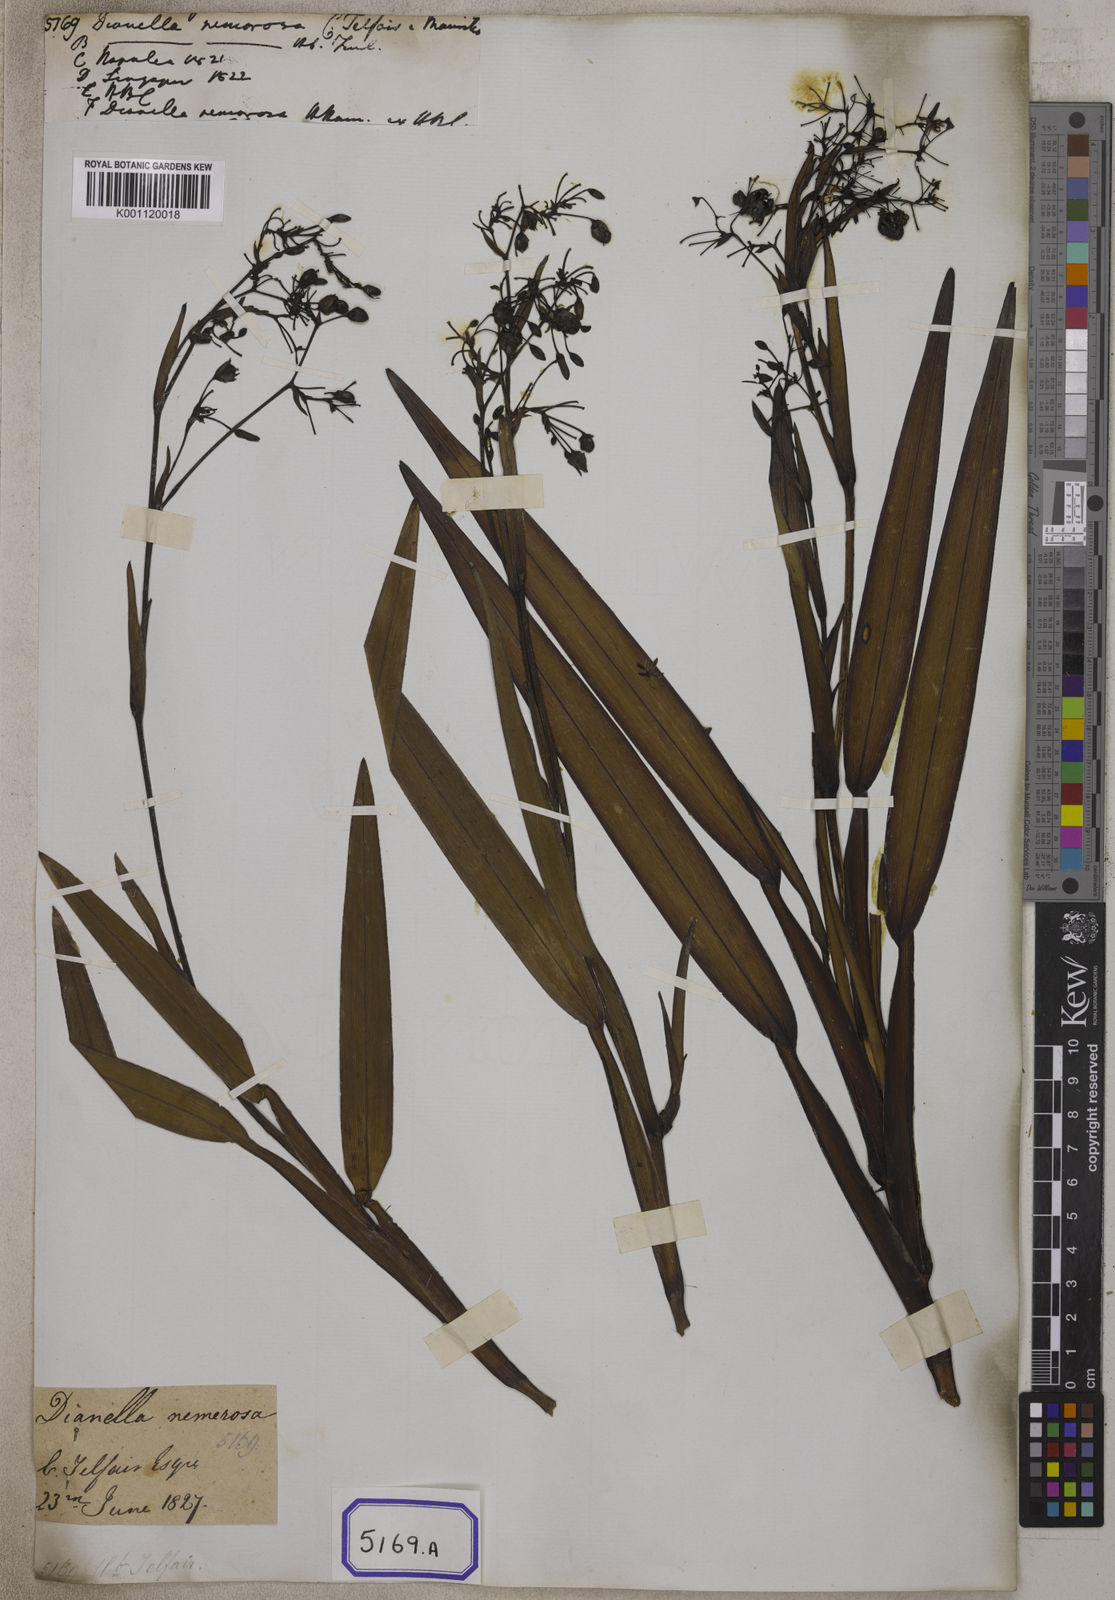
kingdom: Plantae
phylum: Tracheophyta
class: Liliopsida
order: Asparagales
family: Asphodelaceae
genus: Dianella
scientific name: Dianella ensifolia
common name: New zealand lilyplant
